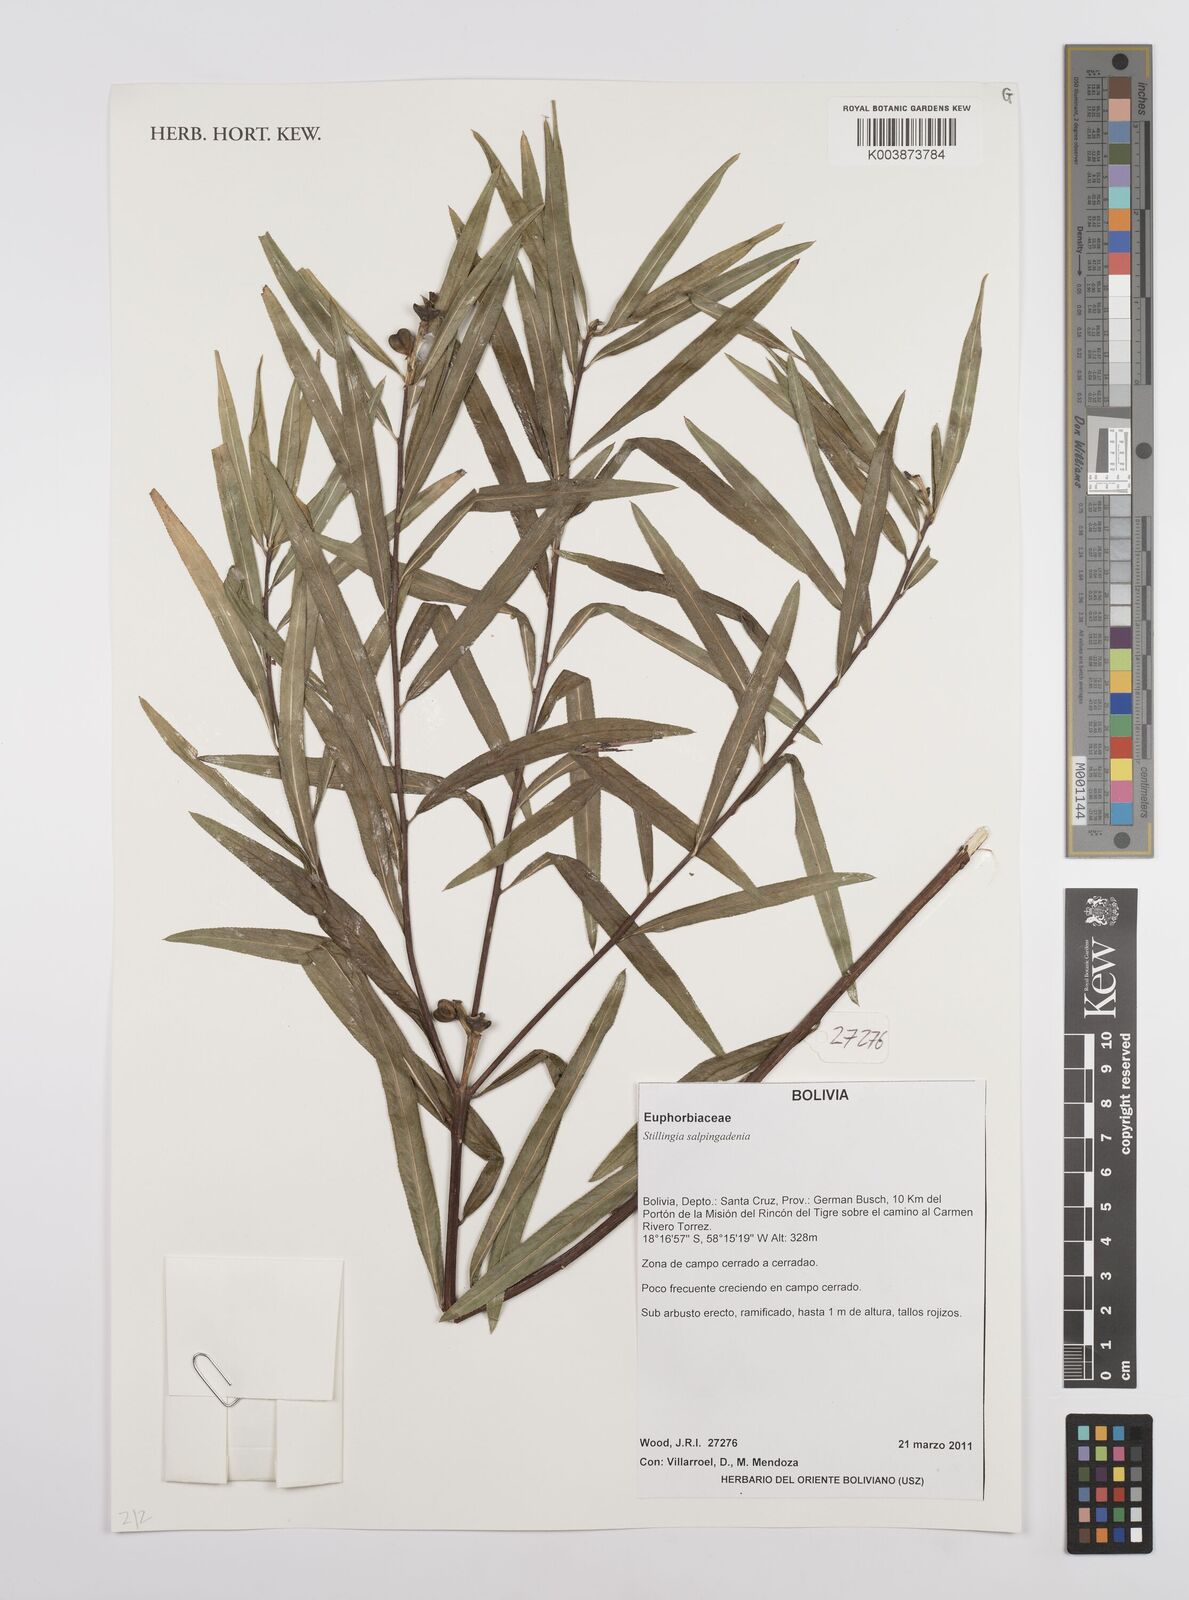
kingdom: Plantae
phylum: Tracheophyta
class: Magnoliopsida
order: Malpighiales
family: Euphorbiaceae
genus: Stillingia
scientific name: Stillingia salpingadenia
